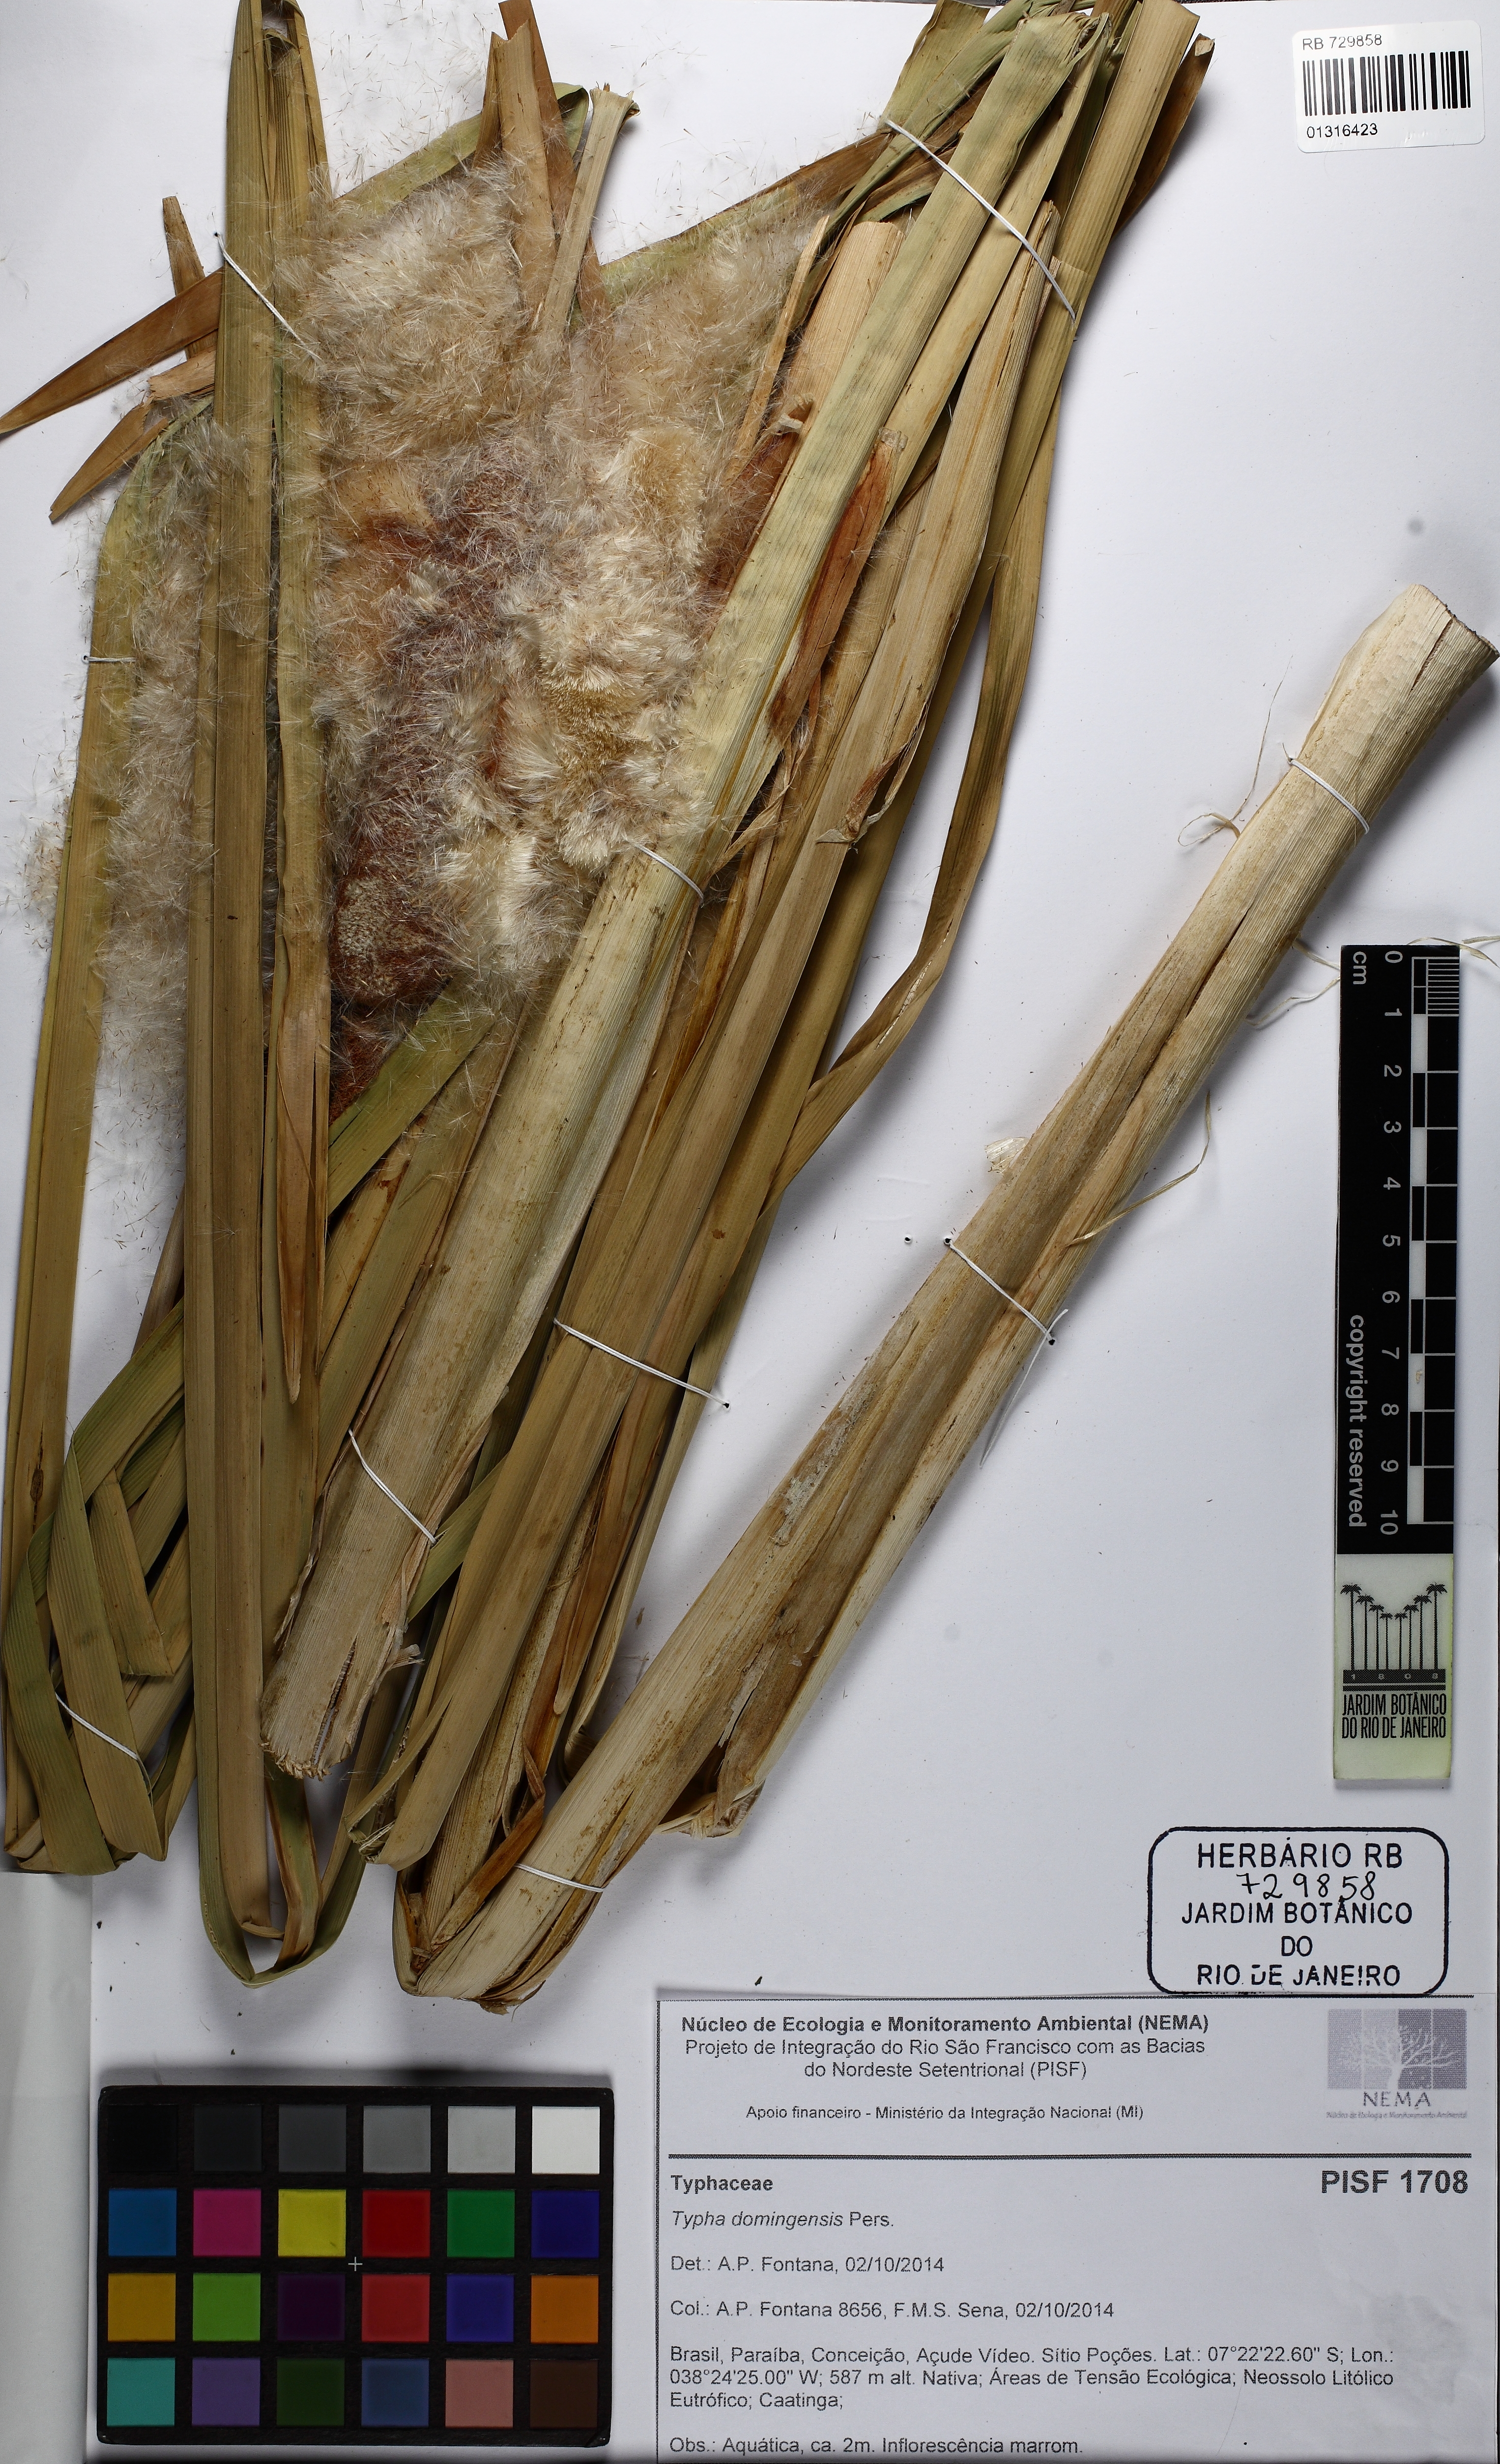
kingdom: Plantae
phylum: Tracheophyta
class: Liliopsida
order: Poales
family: Typhaceae
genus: Typha
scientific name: Typha domingensis
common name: Southern cattail
